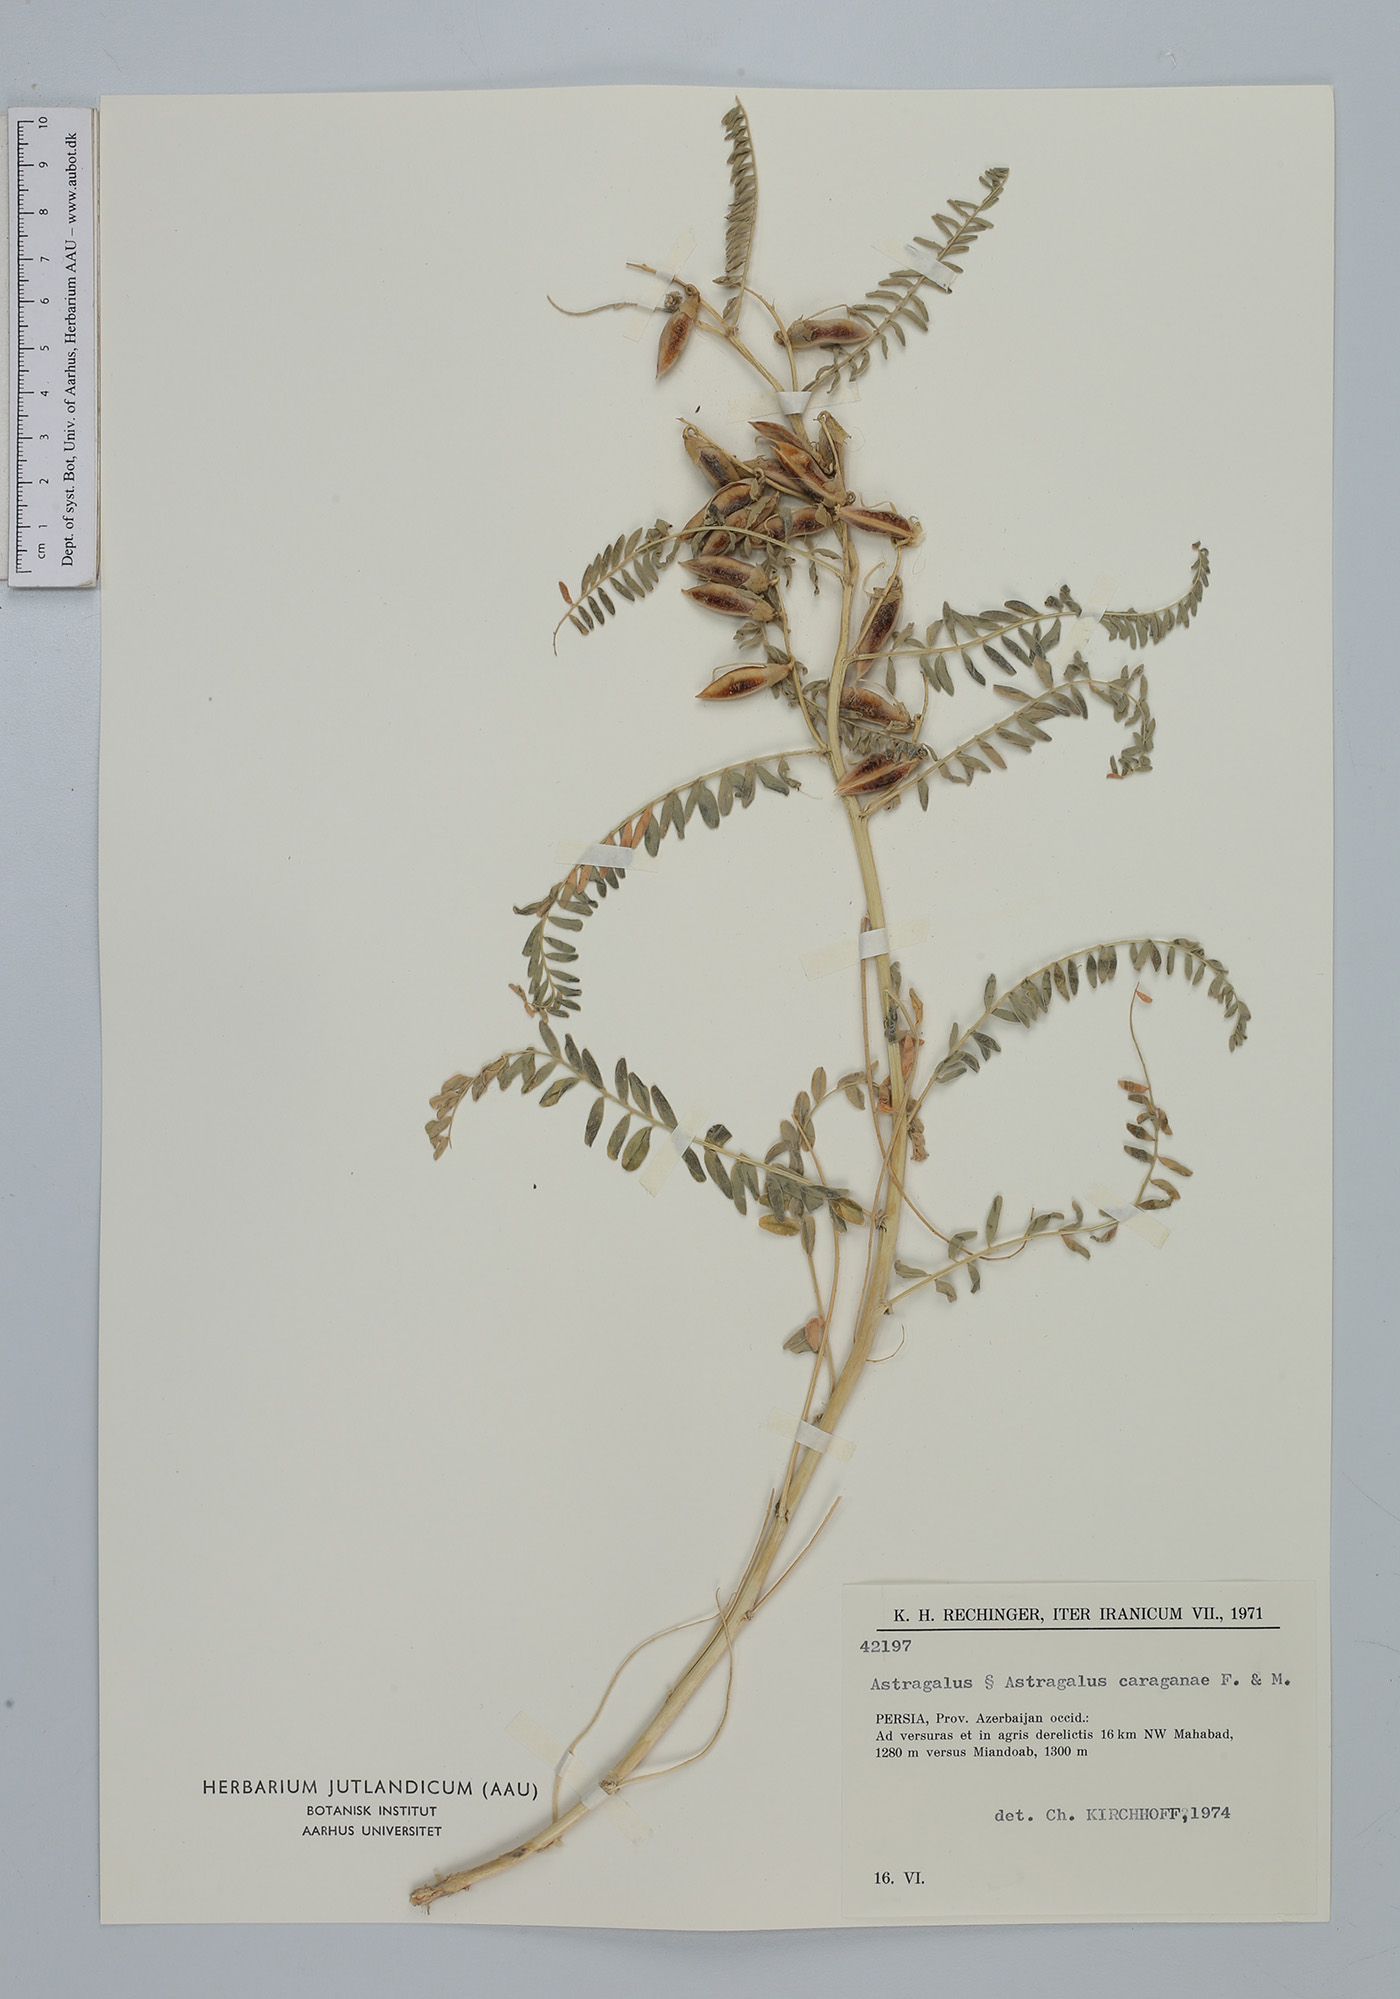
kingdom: Plantae
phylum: Tracheophyta
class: Magnoliopsida
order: Fabales
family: Fabaceae
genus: Astragalus
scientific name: Astragalus caraganae
